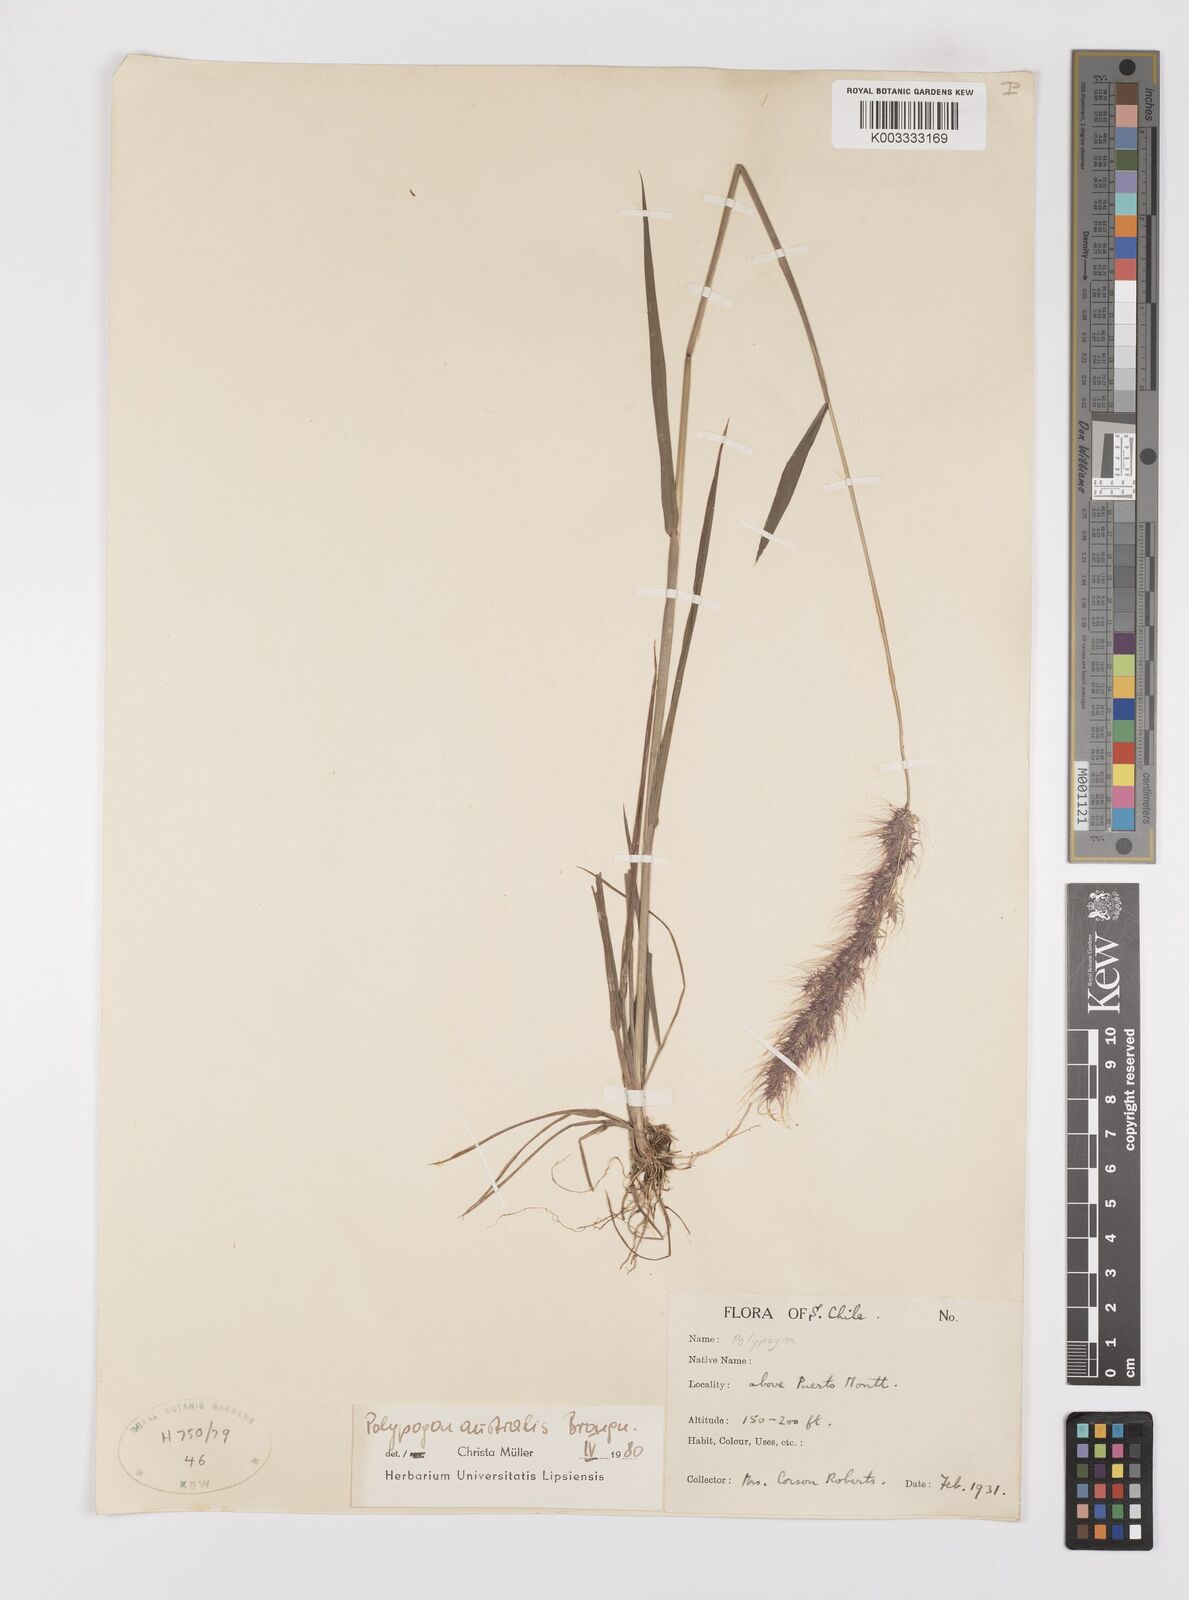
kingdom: Plantae
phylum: Tracheophyta
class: Liliopsida
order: Poales
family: Poaceae
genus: Polypogon
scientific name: Polypogon australis
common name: Chilean rabbitsfoot grass
